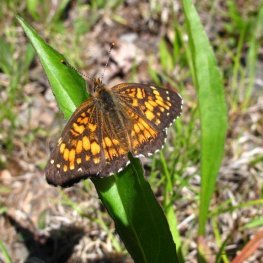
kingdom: Animalia
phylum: Arthropoda
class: Insecta
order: Lepidoptera
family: Nymphalidae
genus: Chlosyne
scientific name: Chlosyne harrisii
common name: Harris's Checkerspot
